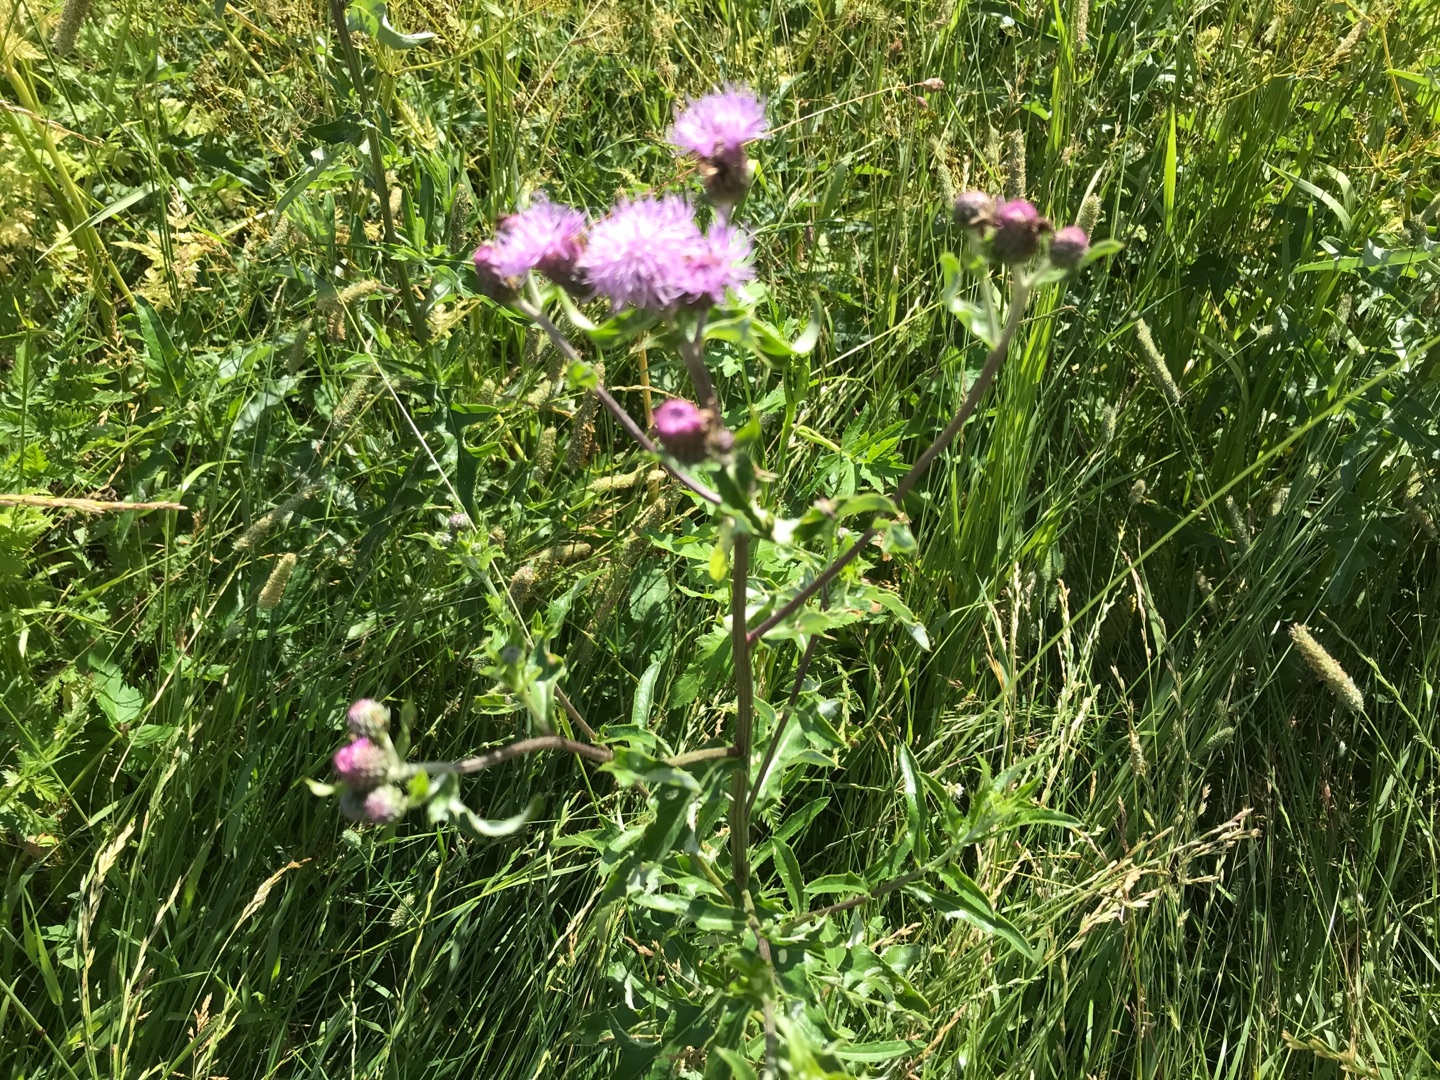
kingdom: Plantae
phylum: Tracheophyta
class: Magnoliopsida
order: Asterales
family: Asteraceae
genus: Cirsium
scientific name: Cirsium arvense
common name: Ager-tidsel
